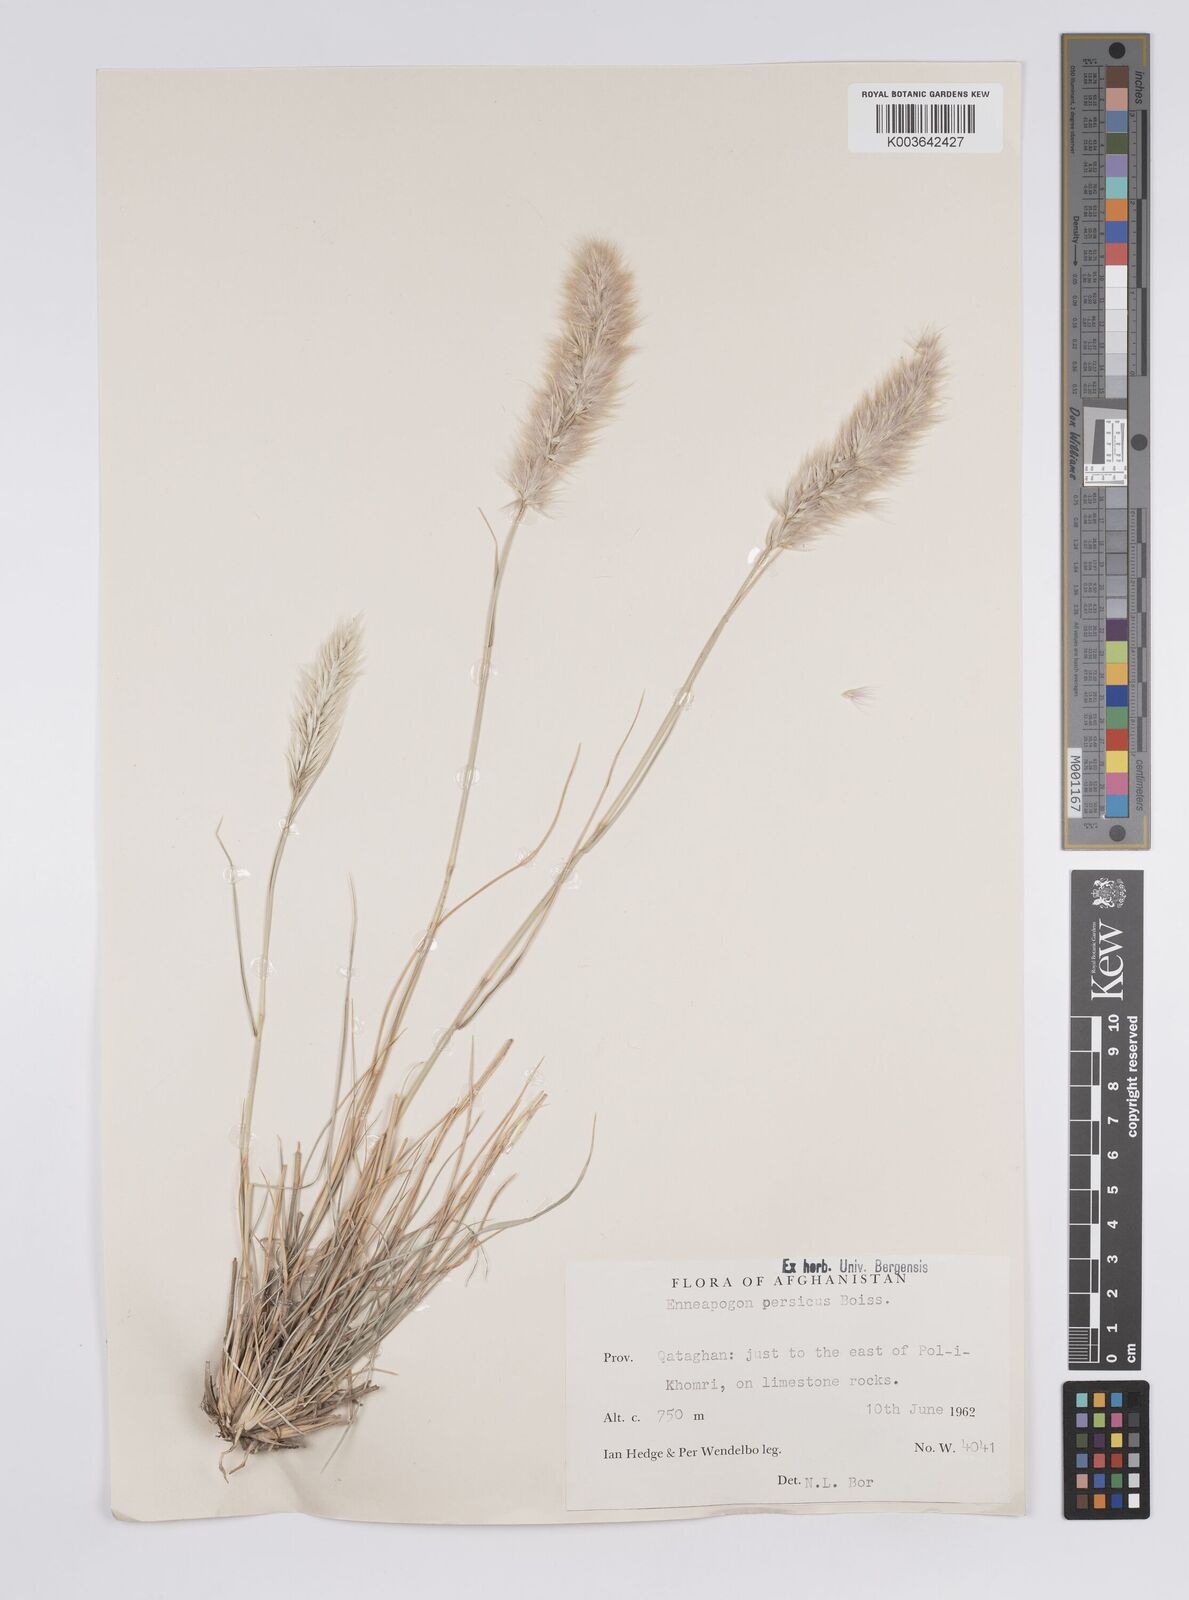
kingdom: Plantae
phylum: Tracheophyta
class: Liliopsida
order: Poales
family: Poaceae
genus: Enneapogon
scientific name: Enneapogon persicus
